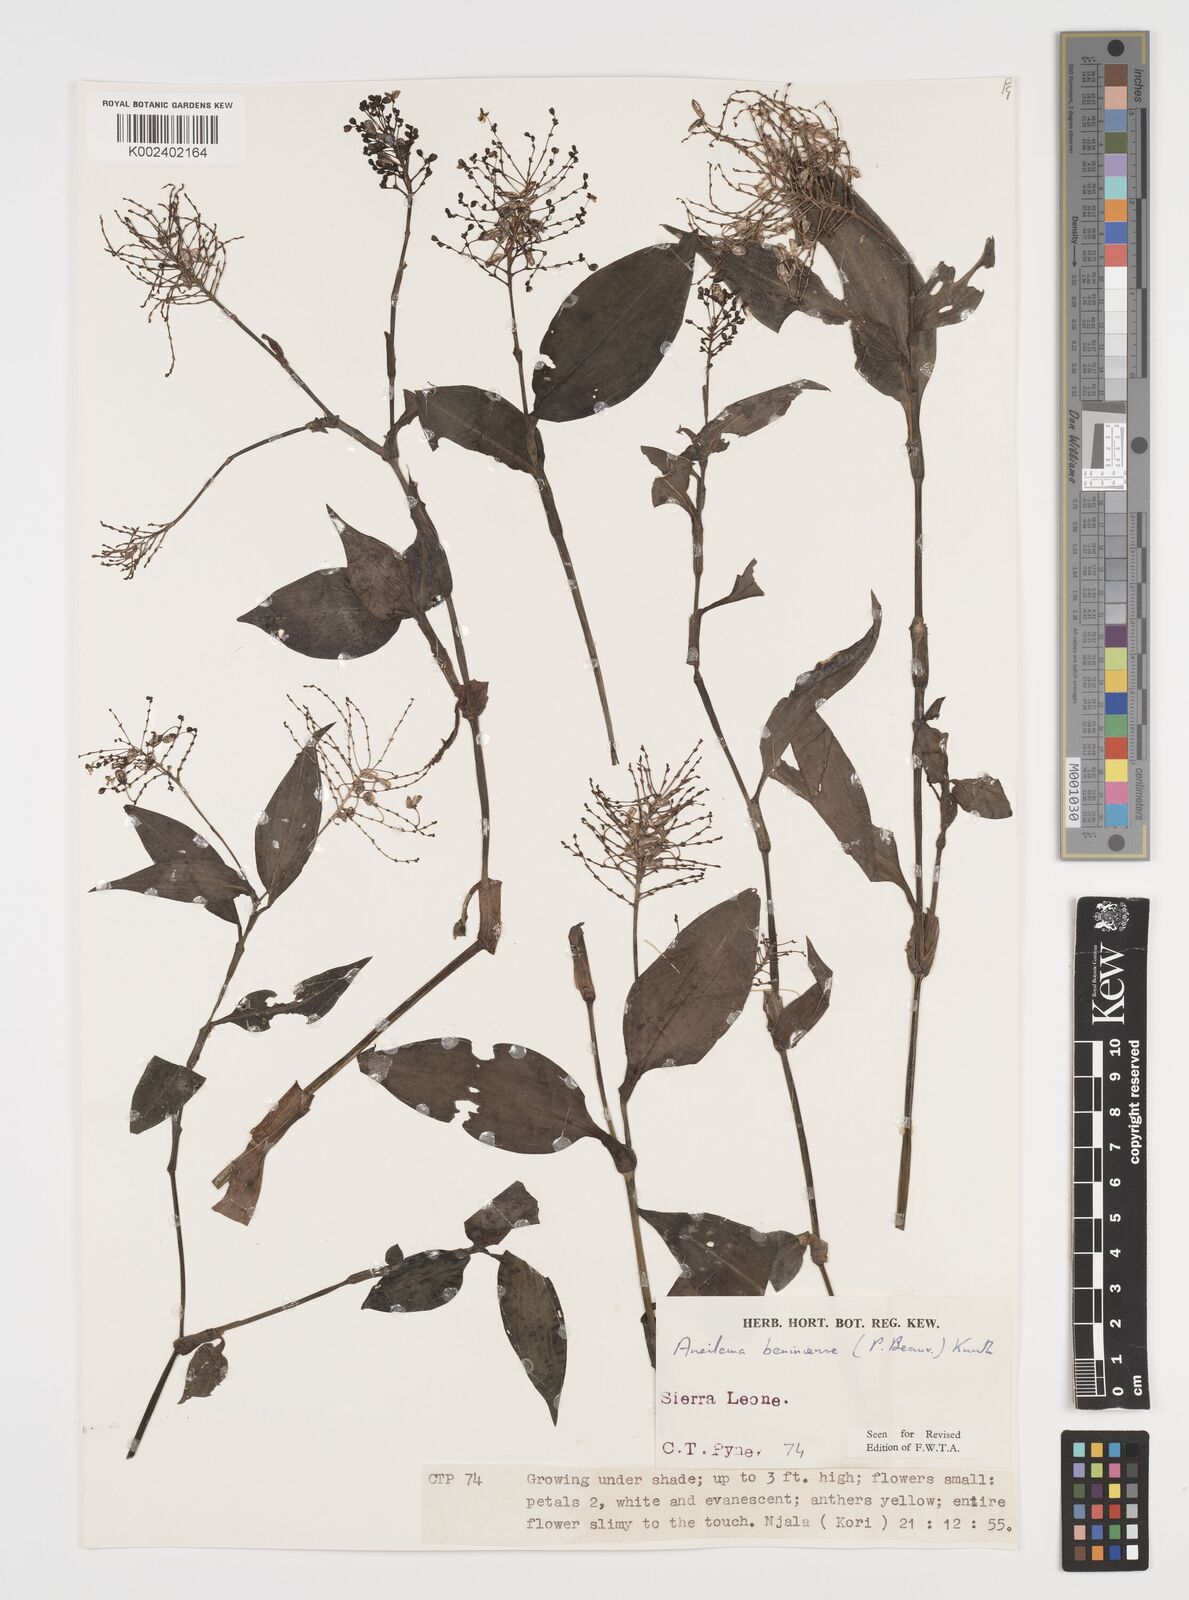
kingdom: Plantae
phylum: Tracheophyta
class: Liliopsida
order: Commelinales
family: Commelinaceae
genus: Aneilema
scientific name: Aneilema beniniense
